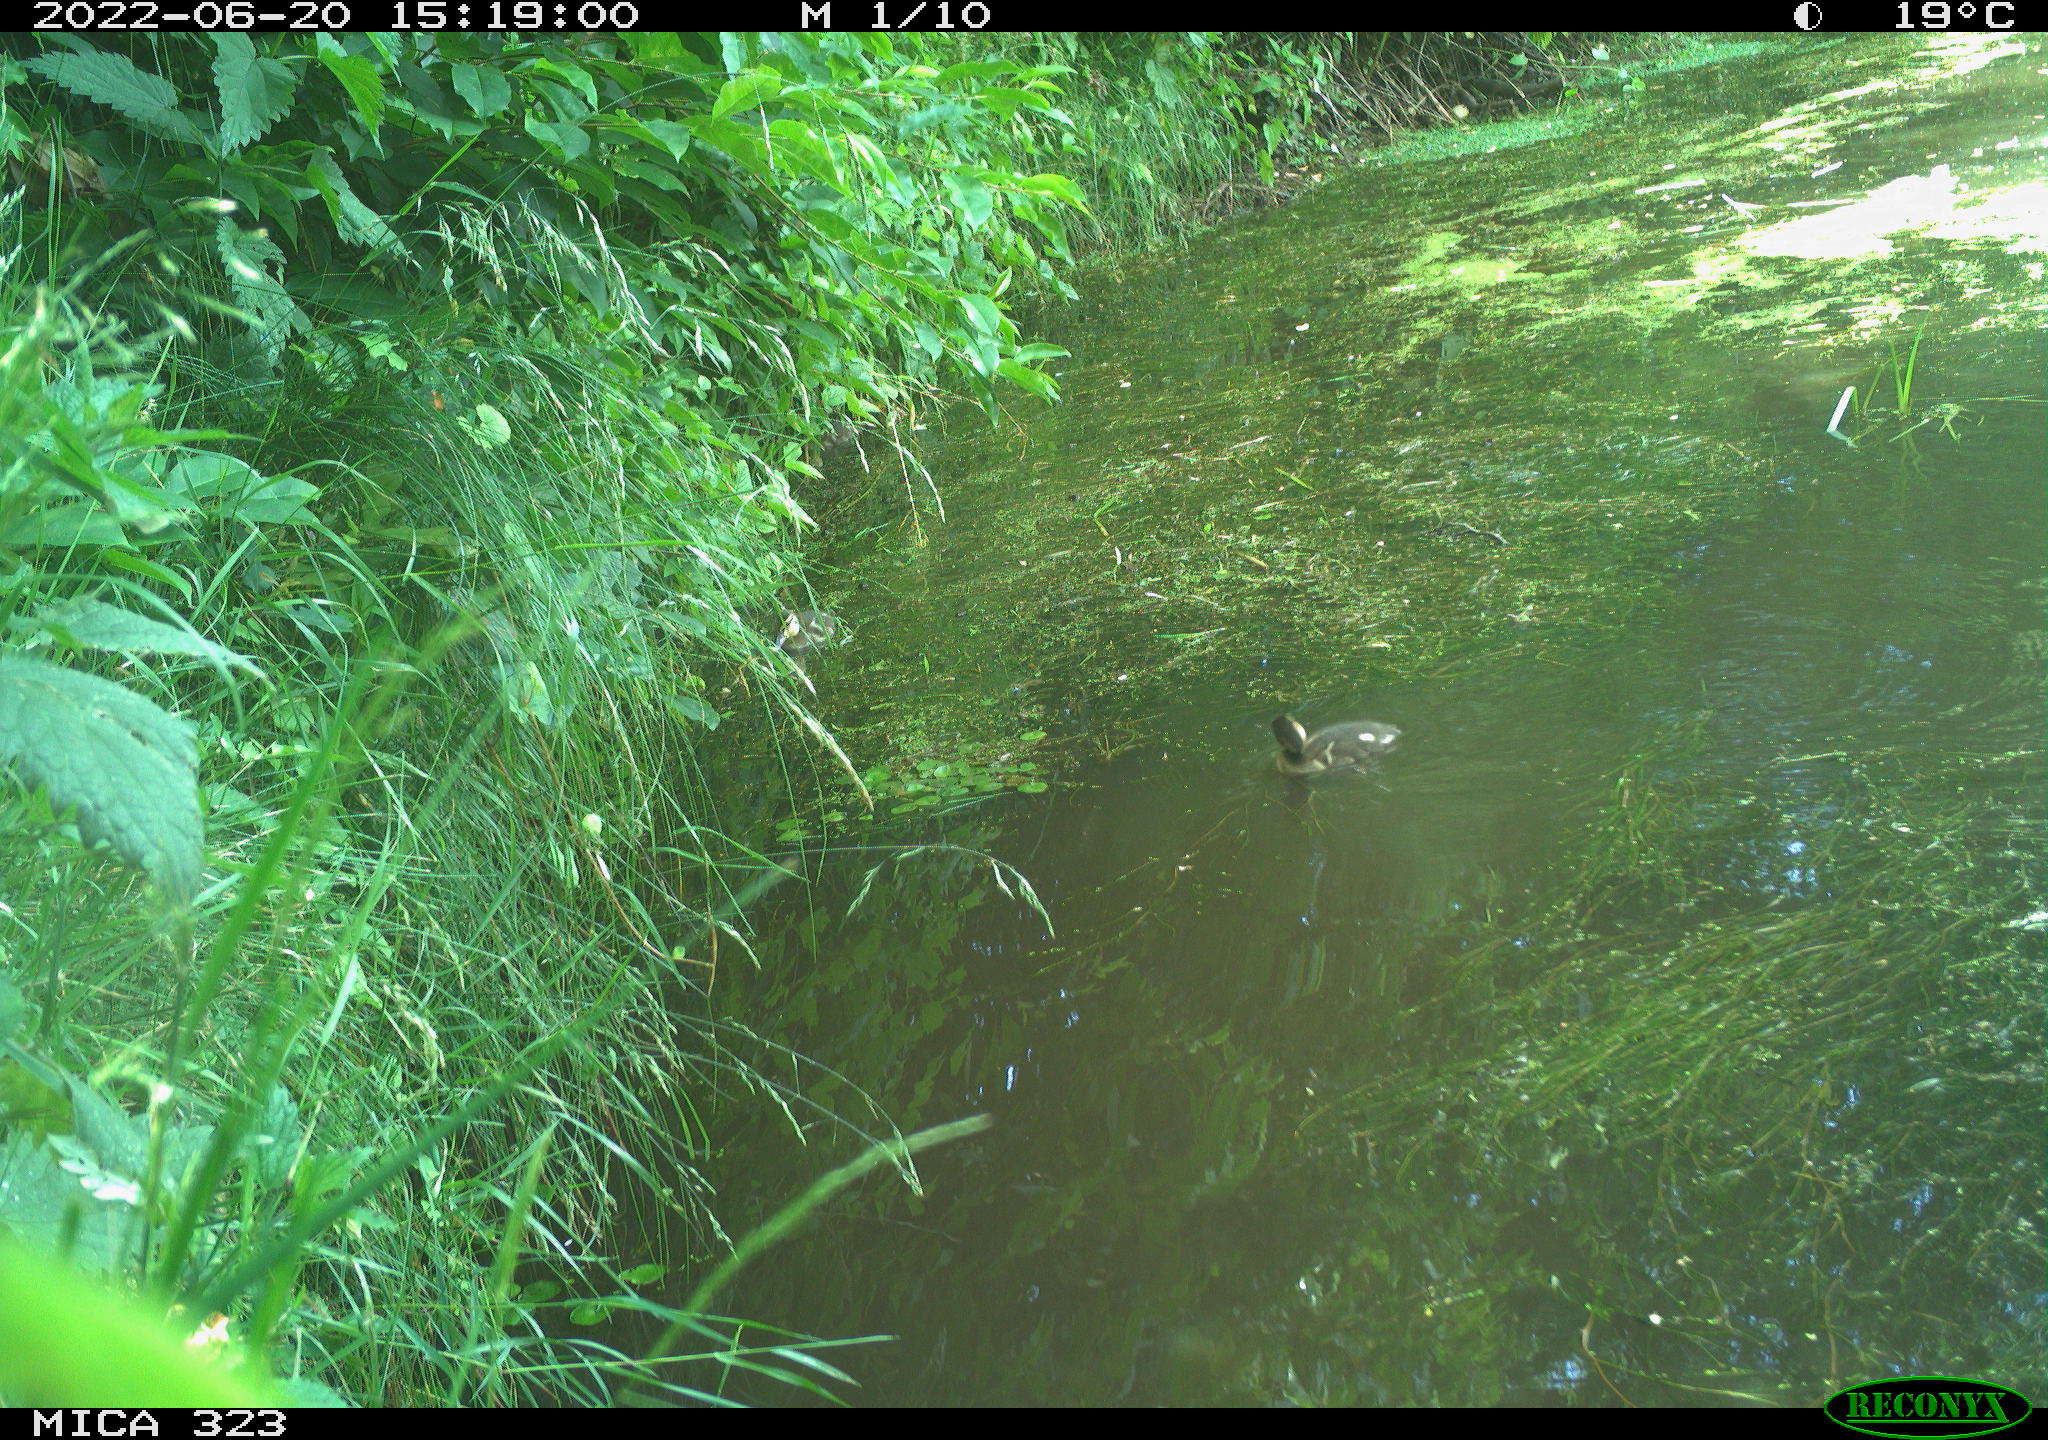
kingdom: Animalia
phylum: Chordata
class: Aves
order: Anseriformes
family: Anatidae
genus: Anas
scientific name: Anas
